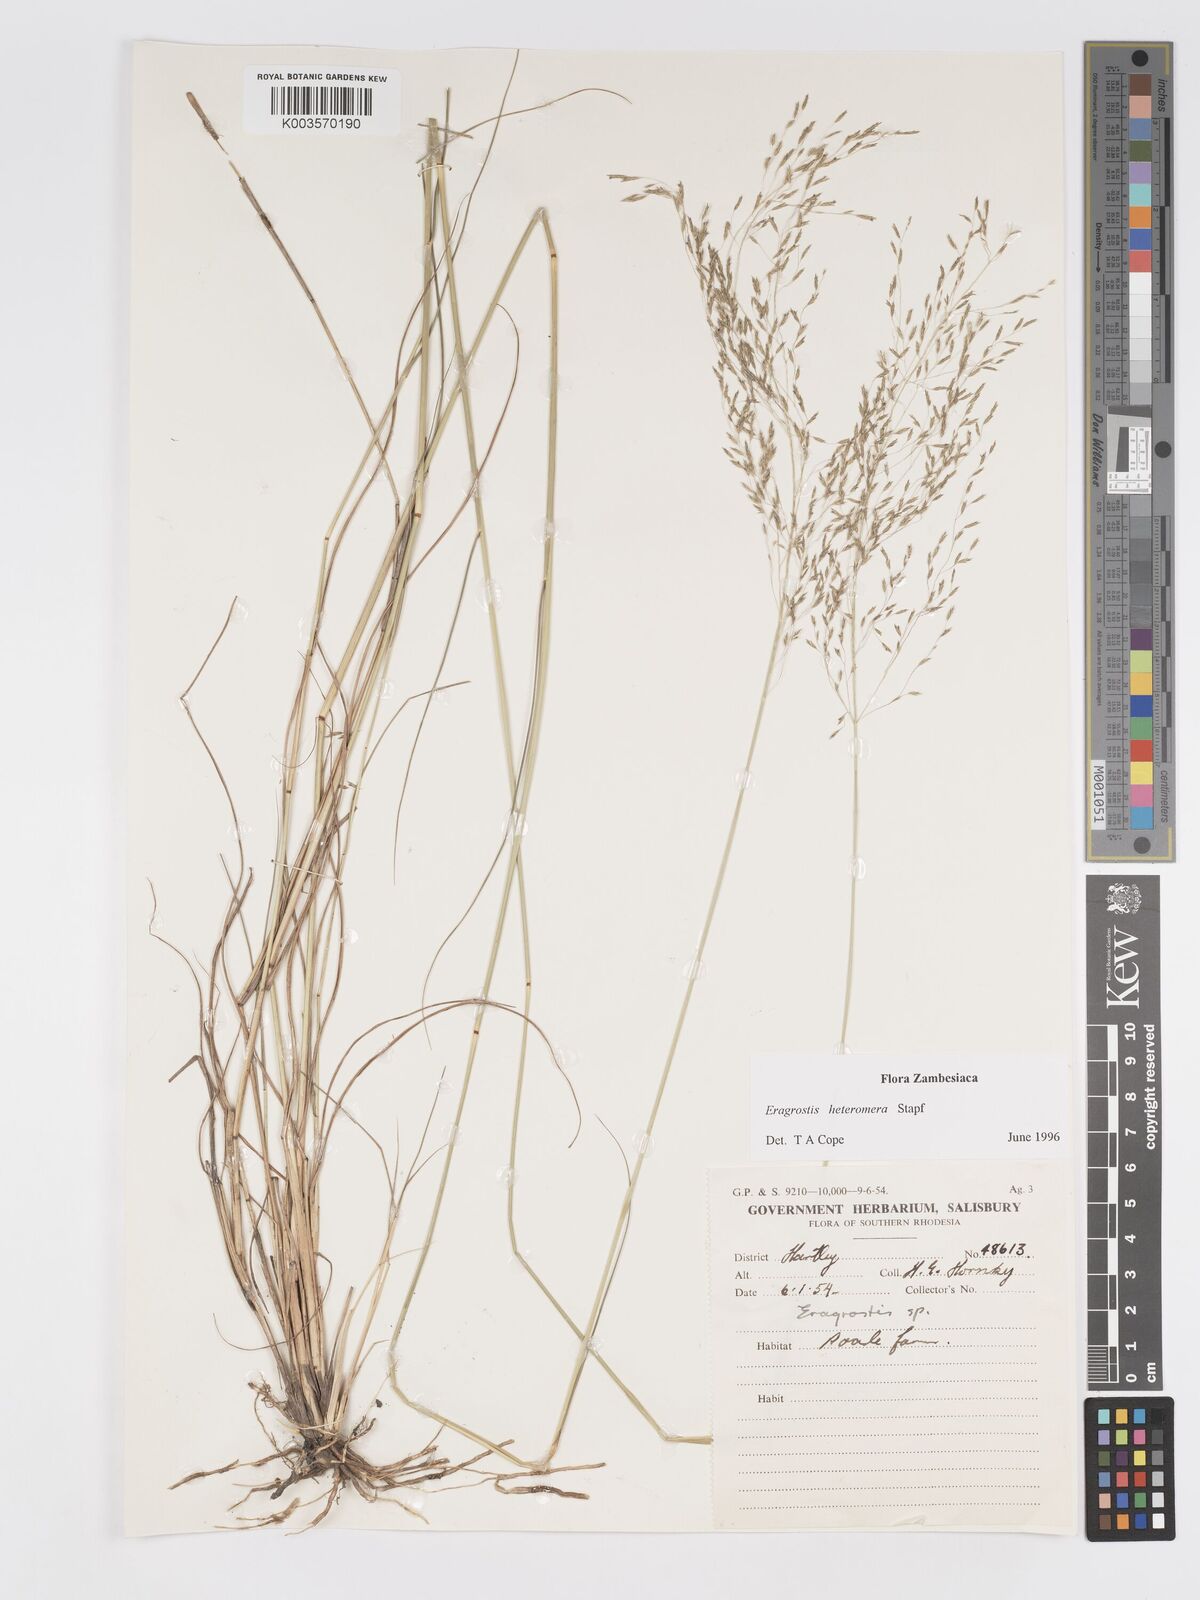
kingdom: Plantae
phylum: Tracheophyta
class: Liliopsida
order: Poales
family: Poaceae
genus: Eragrostis
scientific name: Eragrostis heteromera
